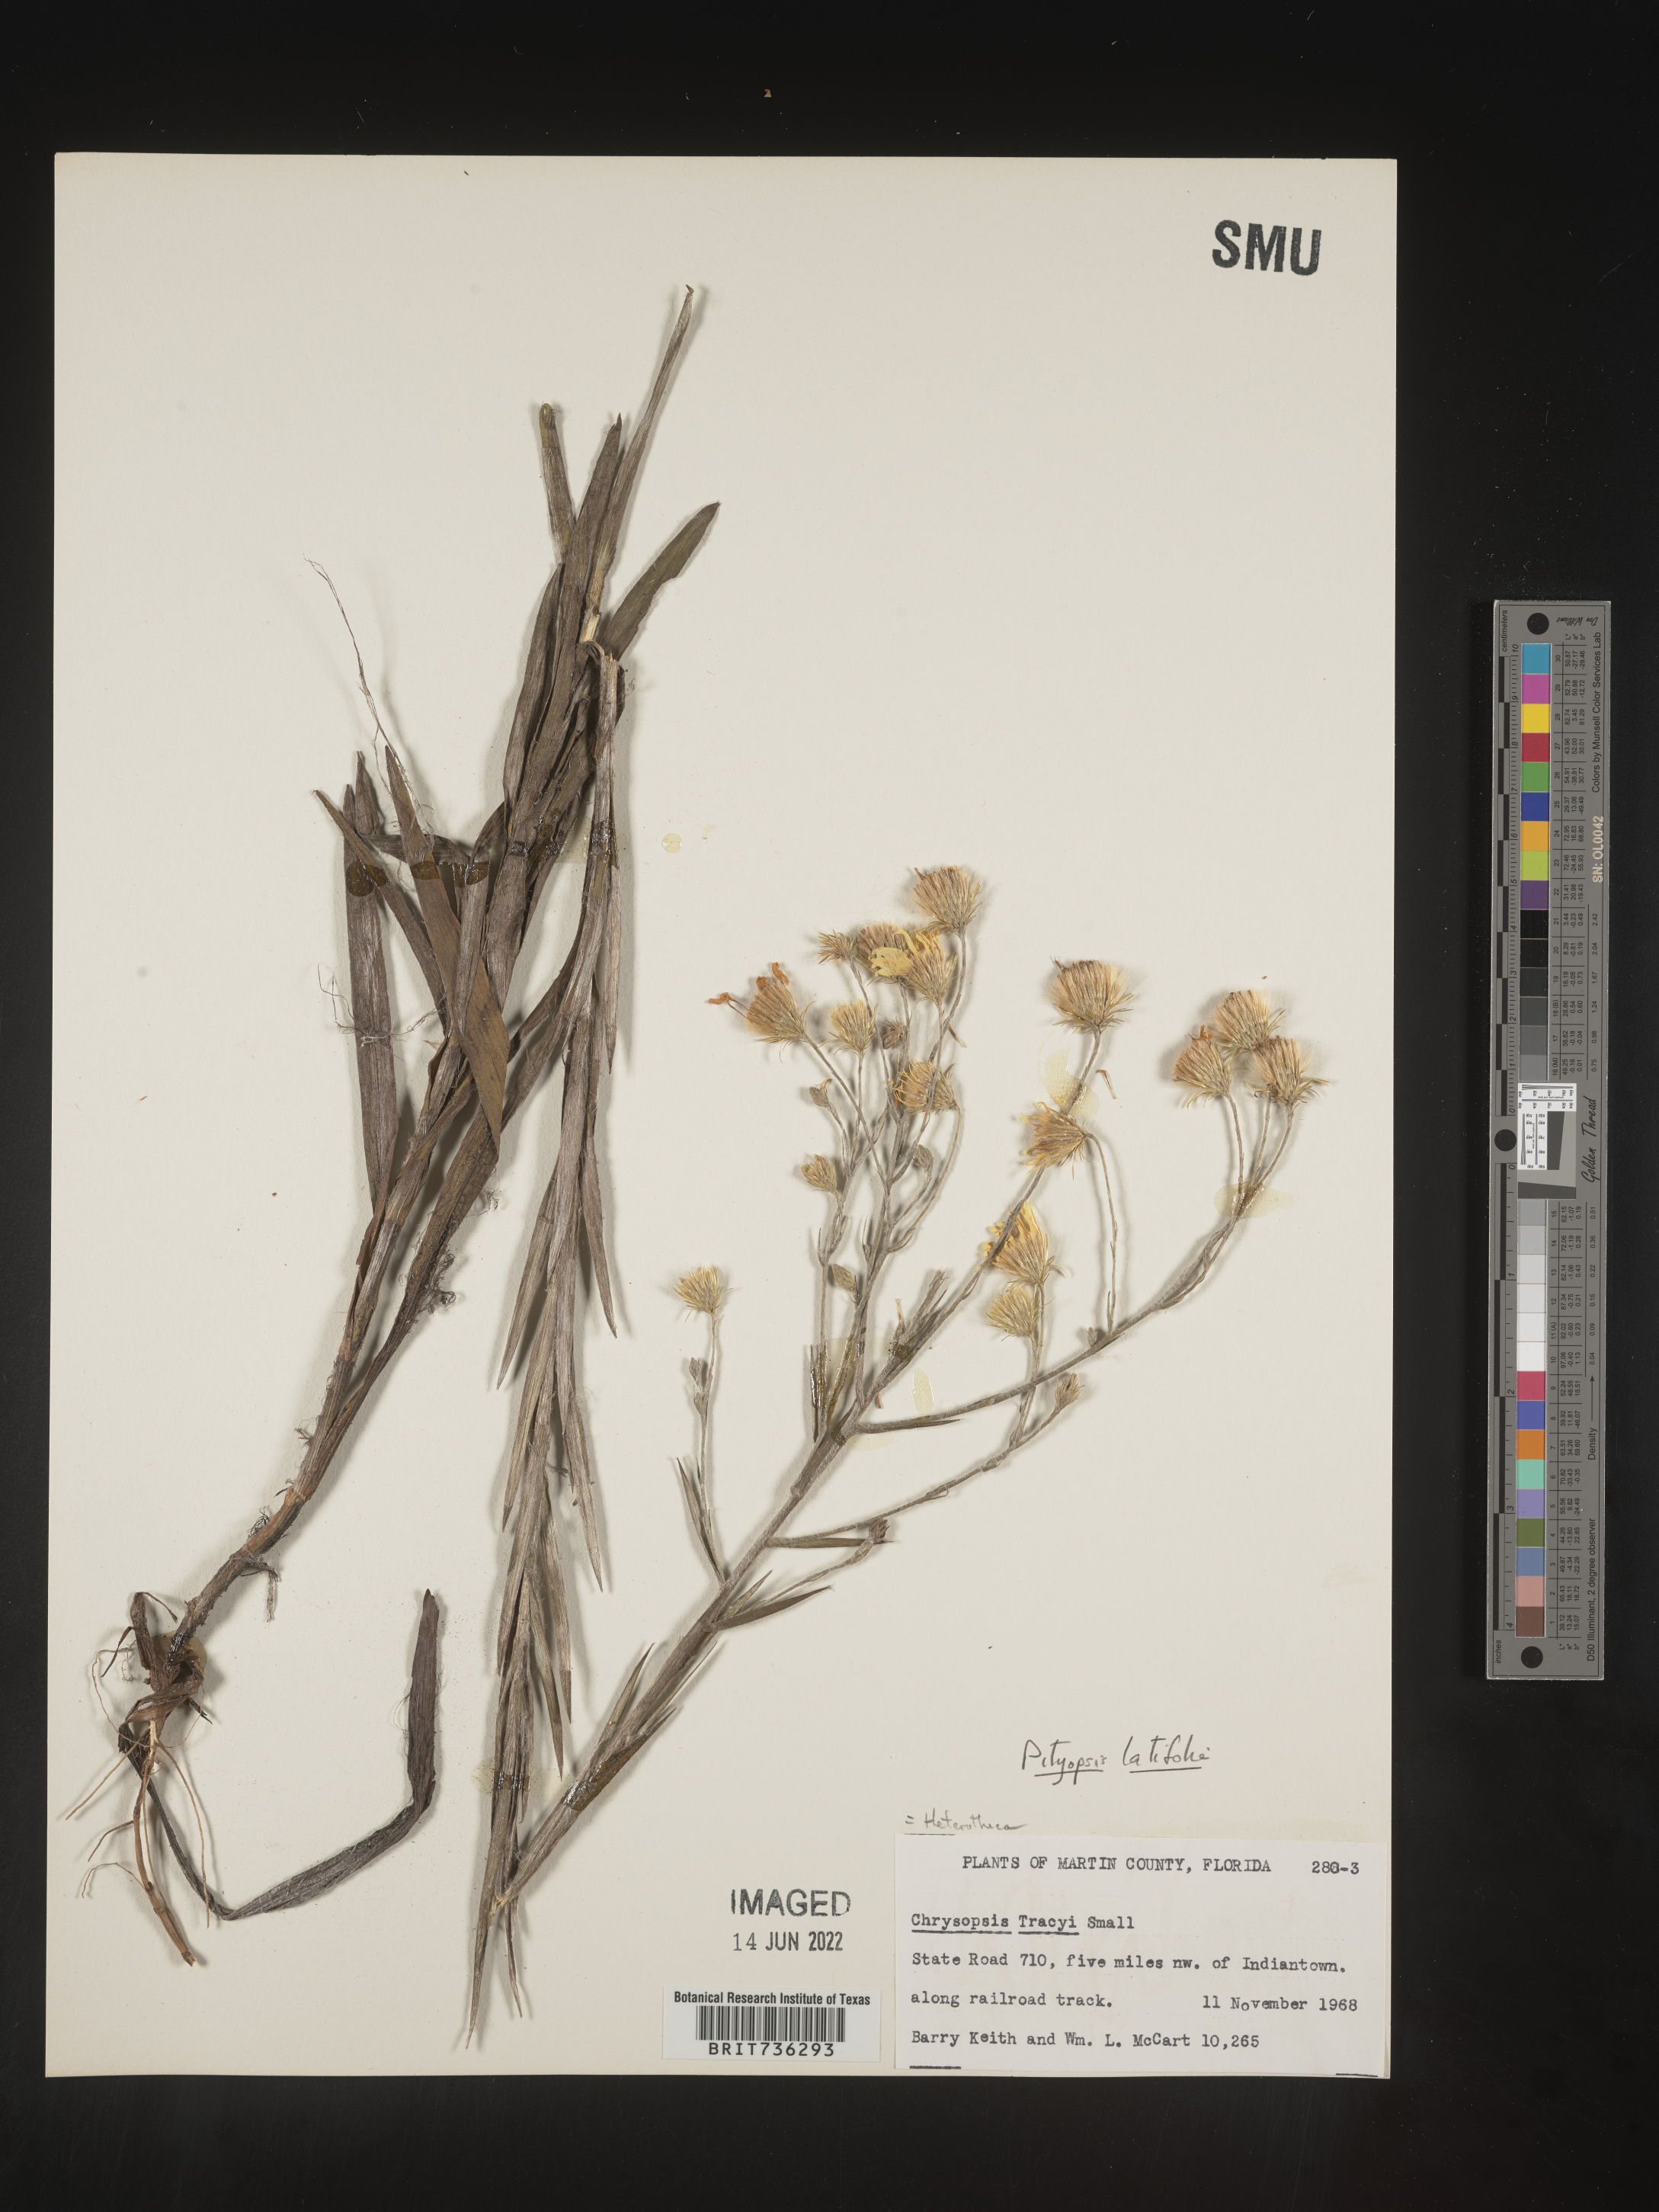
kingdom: Plantae
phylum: Tracheophyta
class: Magnoliopsida
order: Asterales
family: Asteraceae
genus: Pityopsis
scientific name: Pityopsis latifolia
